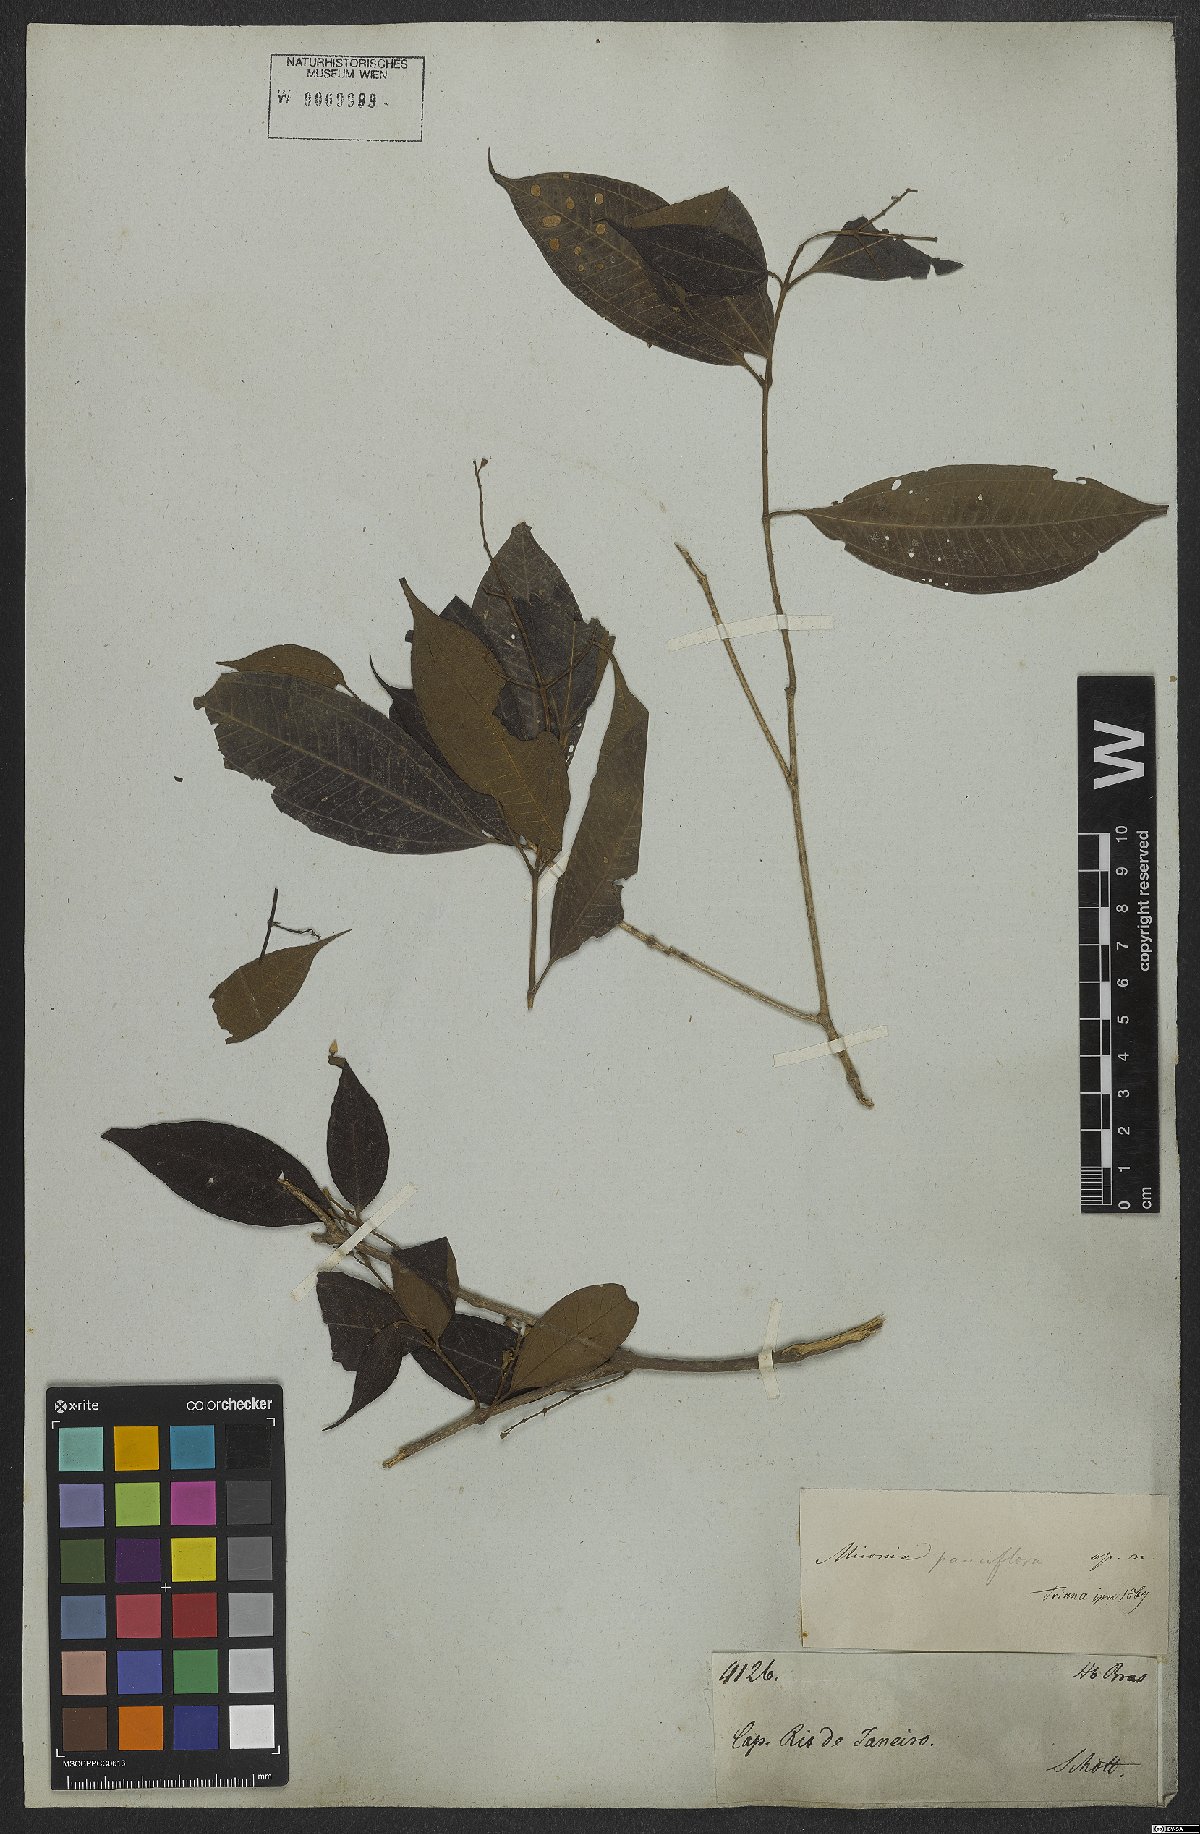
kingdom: Plantae
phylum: Tracheophyta
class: Magnoliopsida
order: Myrtales
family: Melastomataceae
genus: Miconia
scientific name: Miconia brasiliensis
